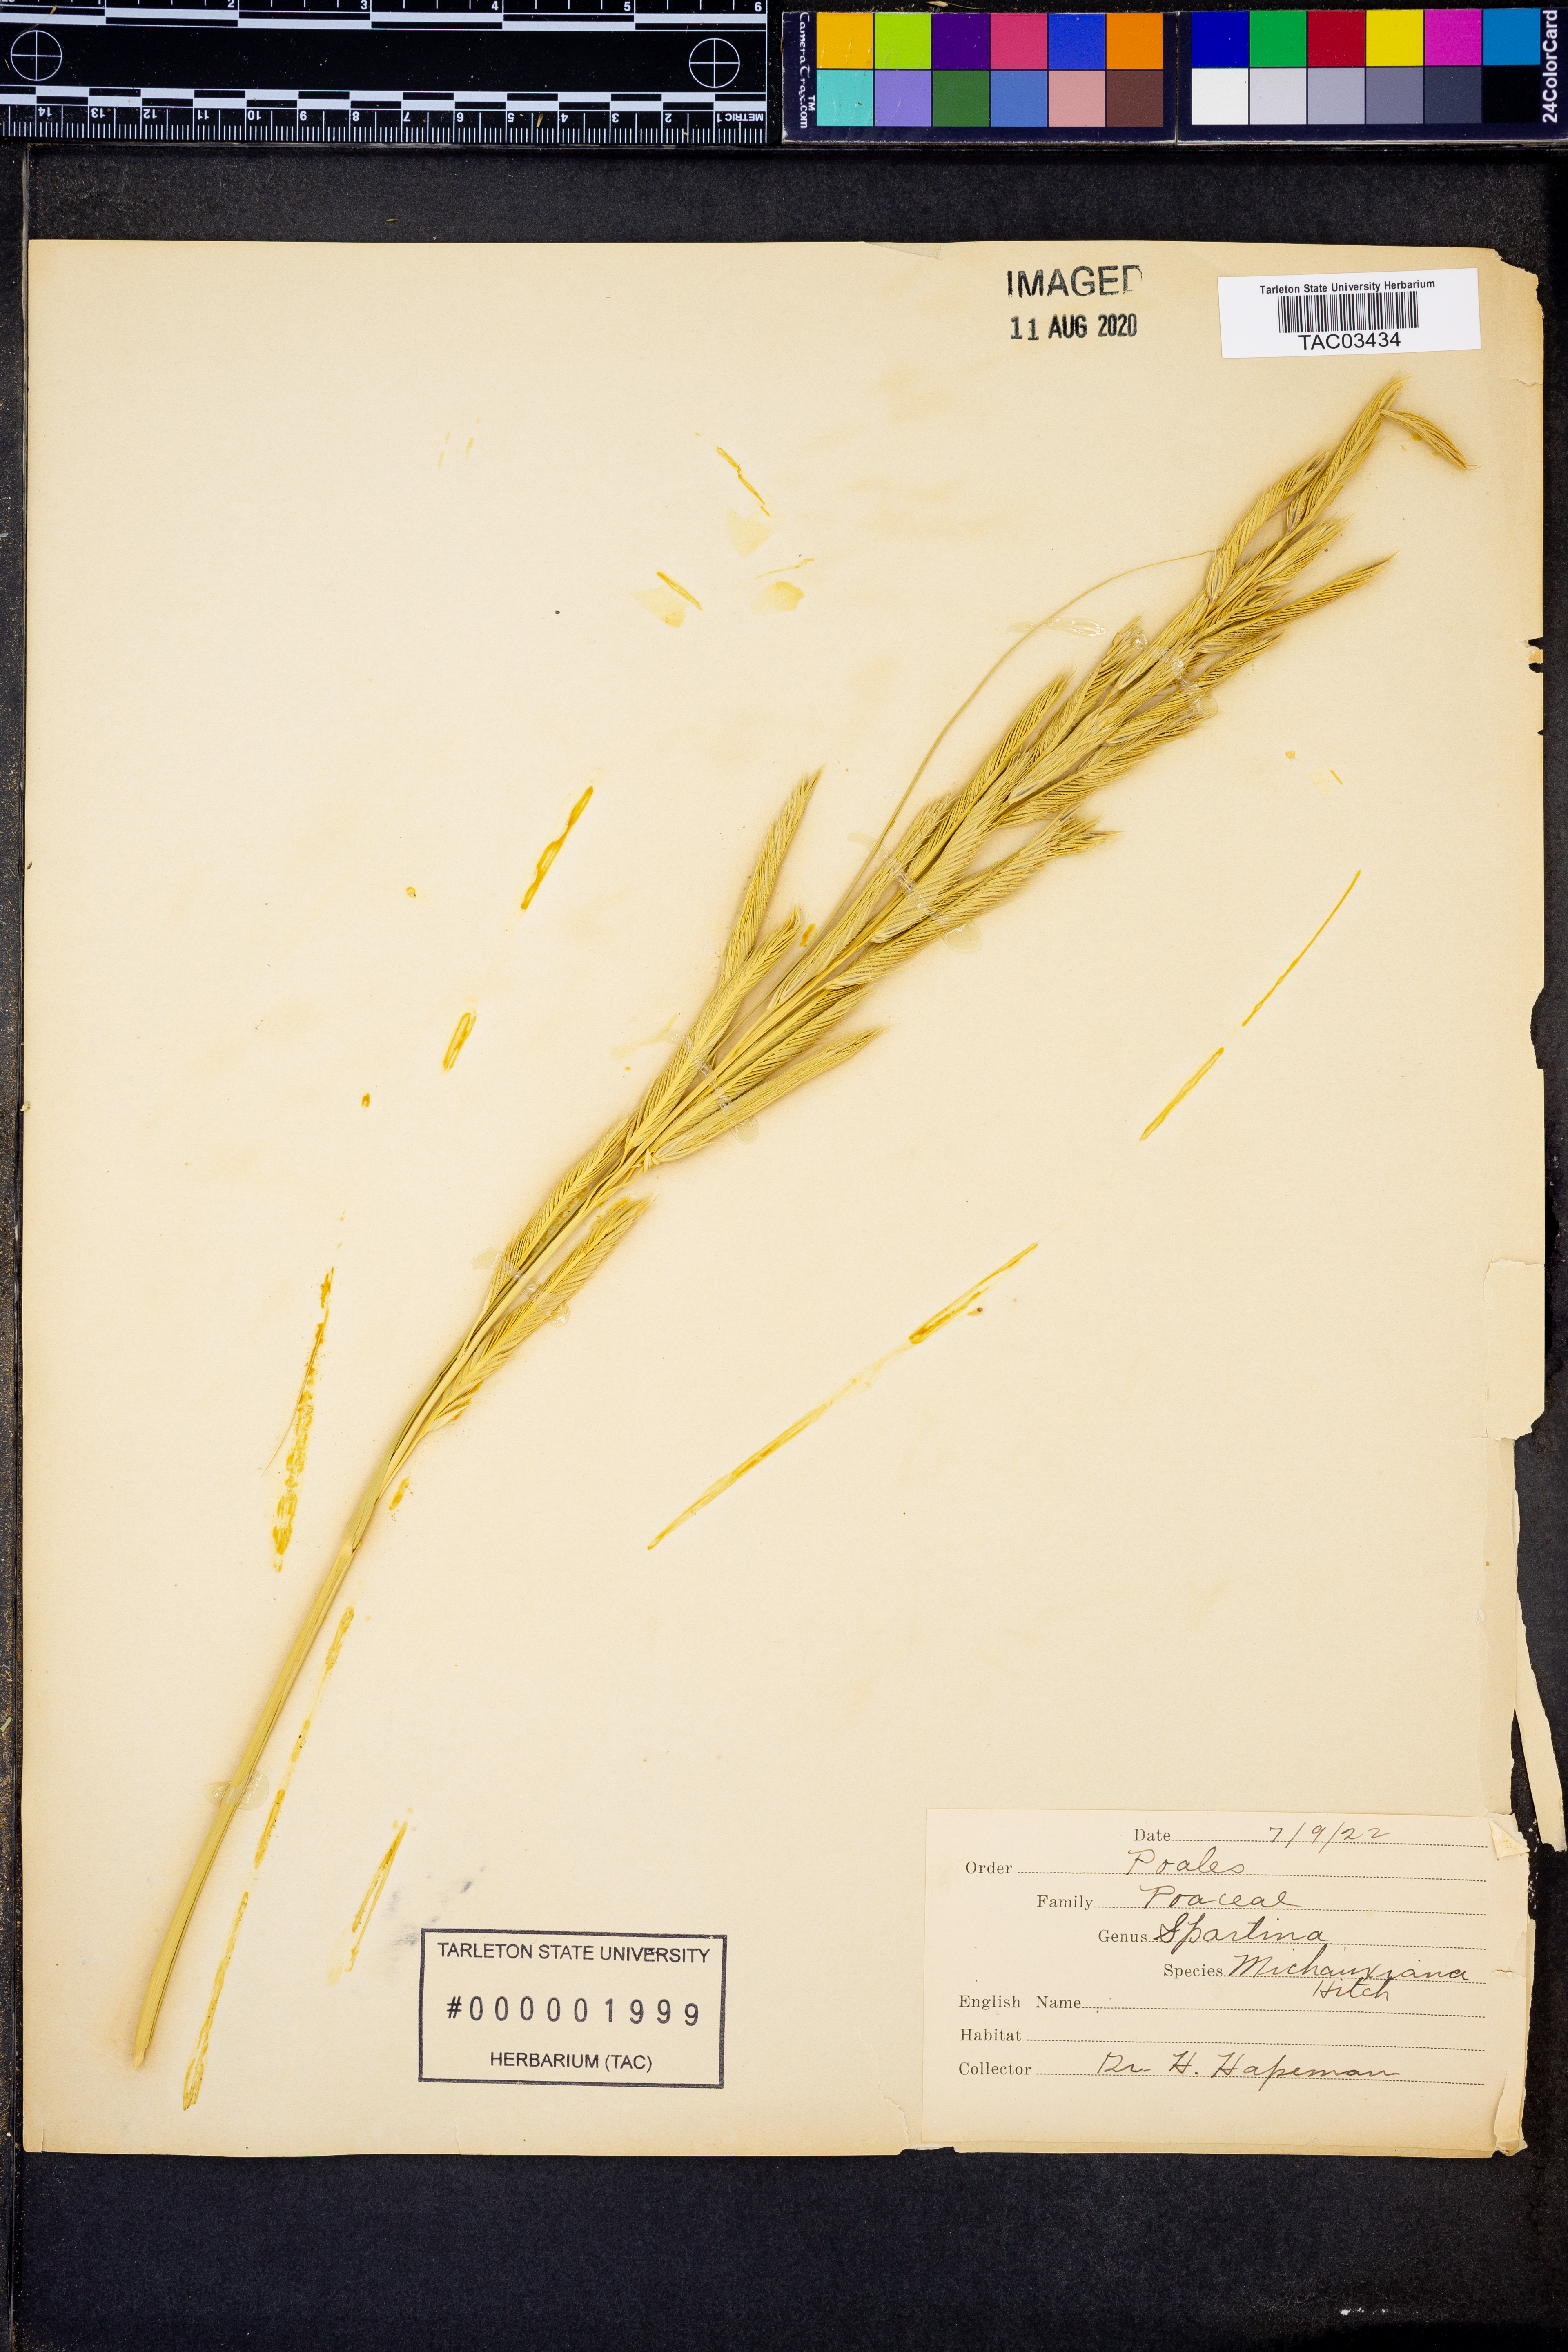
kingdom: Plantae
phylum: Tracheophyta
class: Liliopsida
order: Poales
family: Poaceae
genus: Sporobolus
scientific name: Sporobolus michauxianus
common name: Freshwater cordgrass
